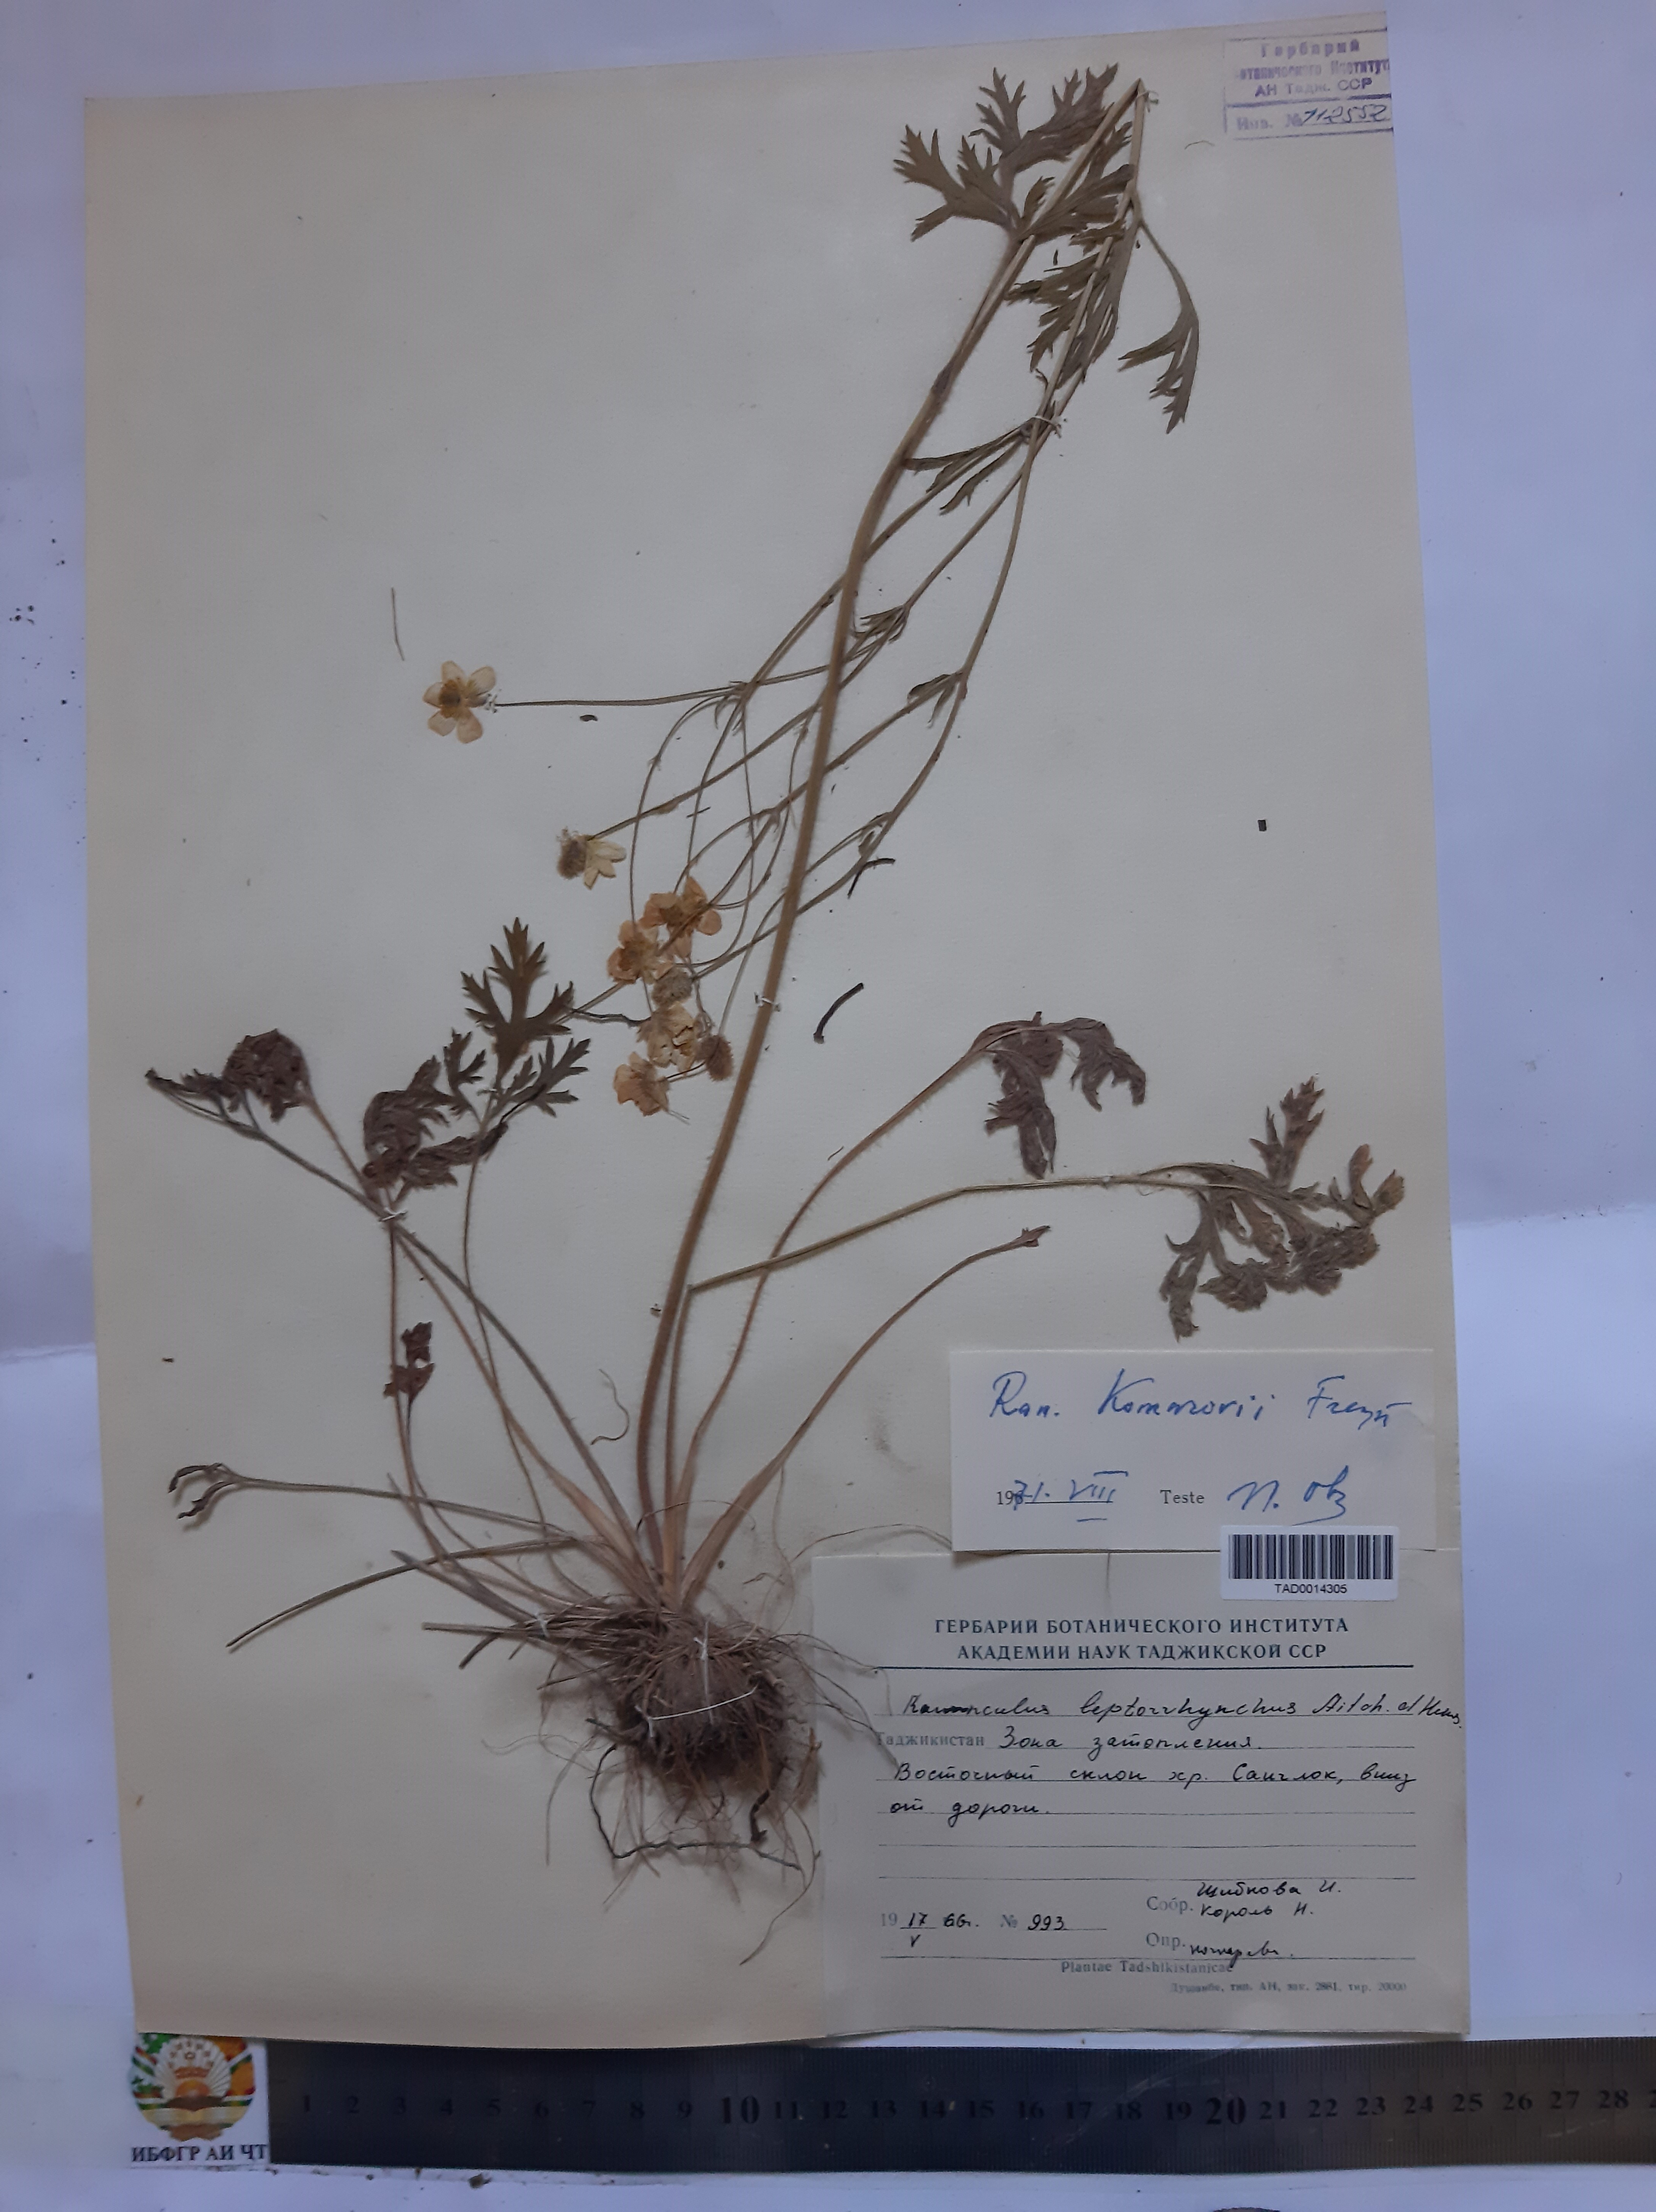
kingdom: Plantae
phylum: Tracheophyta
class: Magnoliopsida
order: Ranunculales
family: Ranunculaceae
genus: Ranunculus
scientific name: Ranunculus leptorrhynchus
